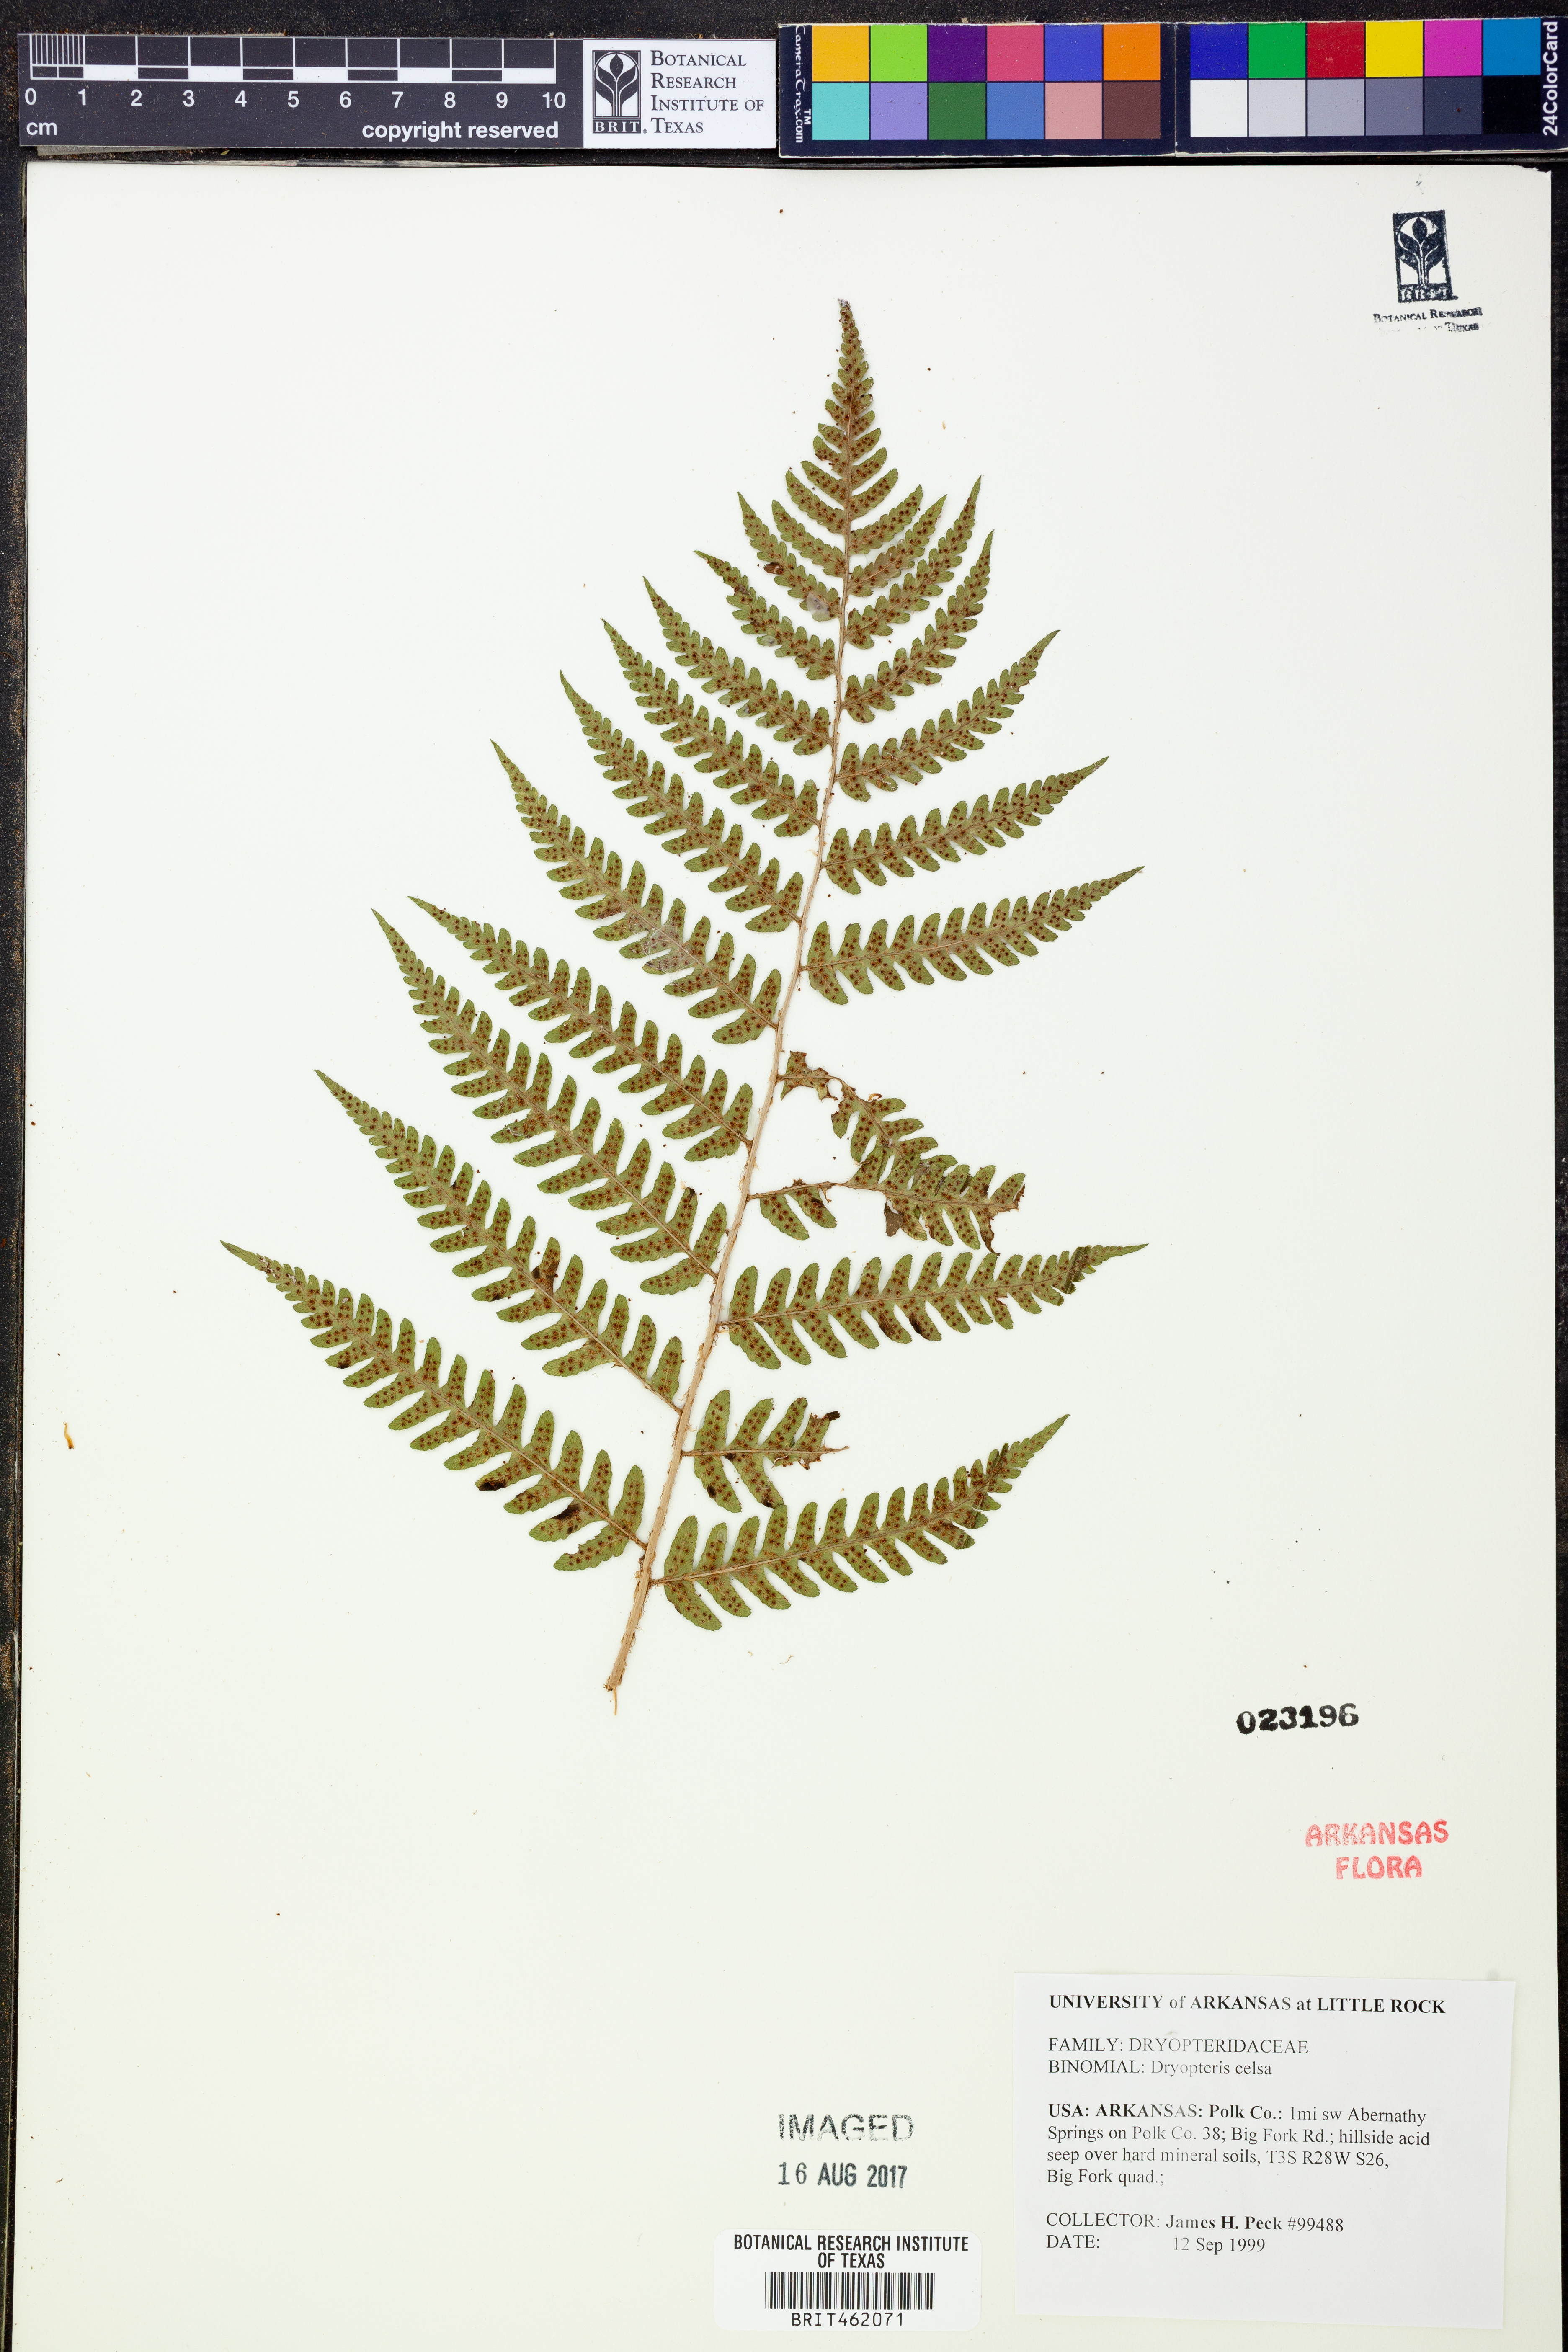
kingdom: Plantae
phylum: Tracheophyta
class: Polypodiopsida
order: Polypodiales
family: Dryopteridaceae
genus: Dryopteris
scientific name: Dryopteris celsa
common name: Log fern
